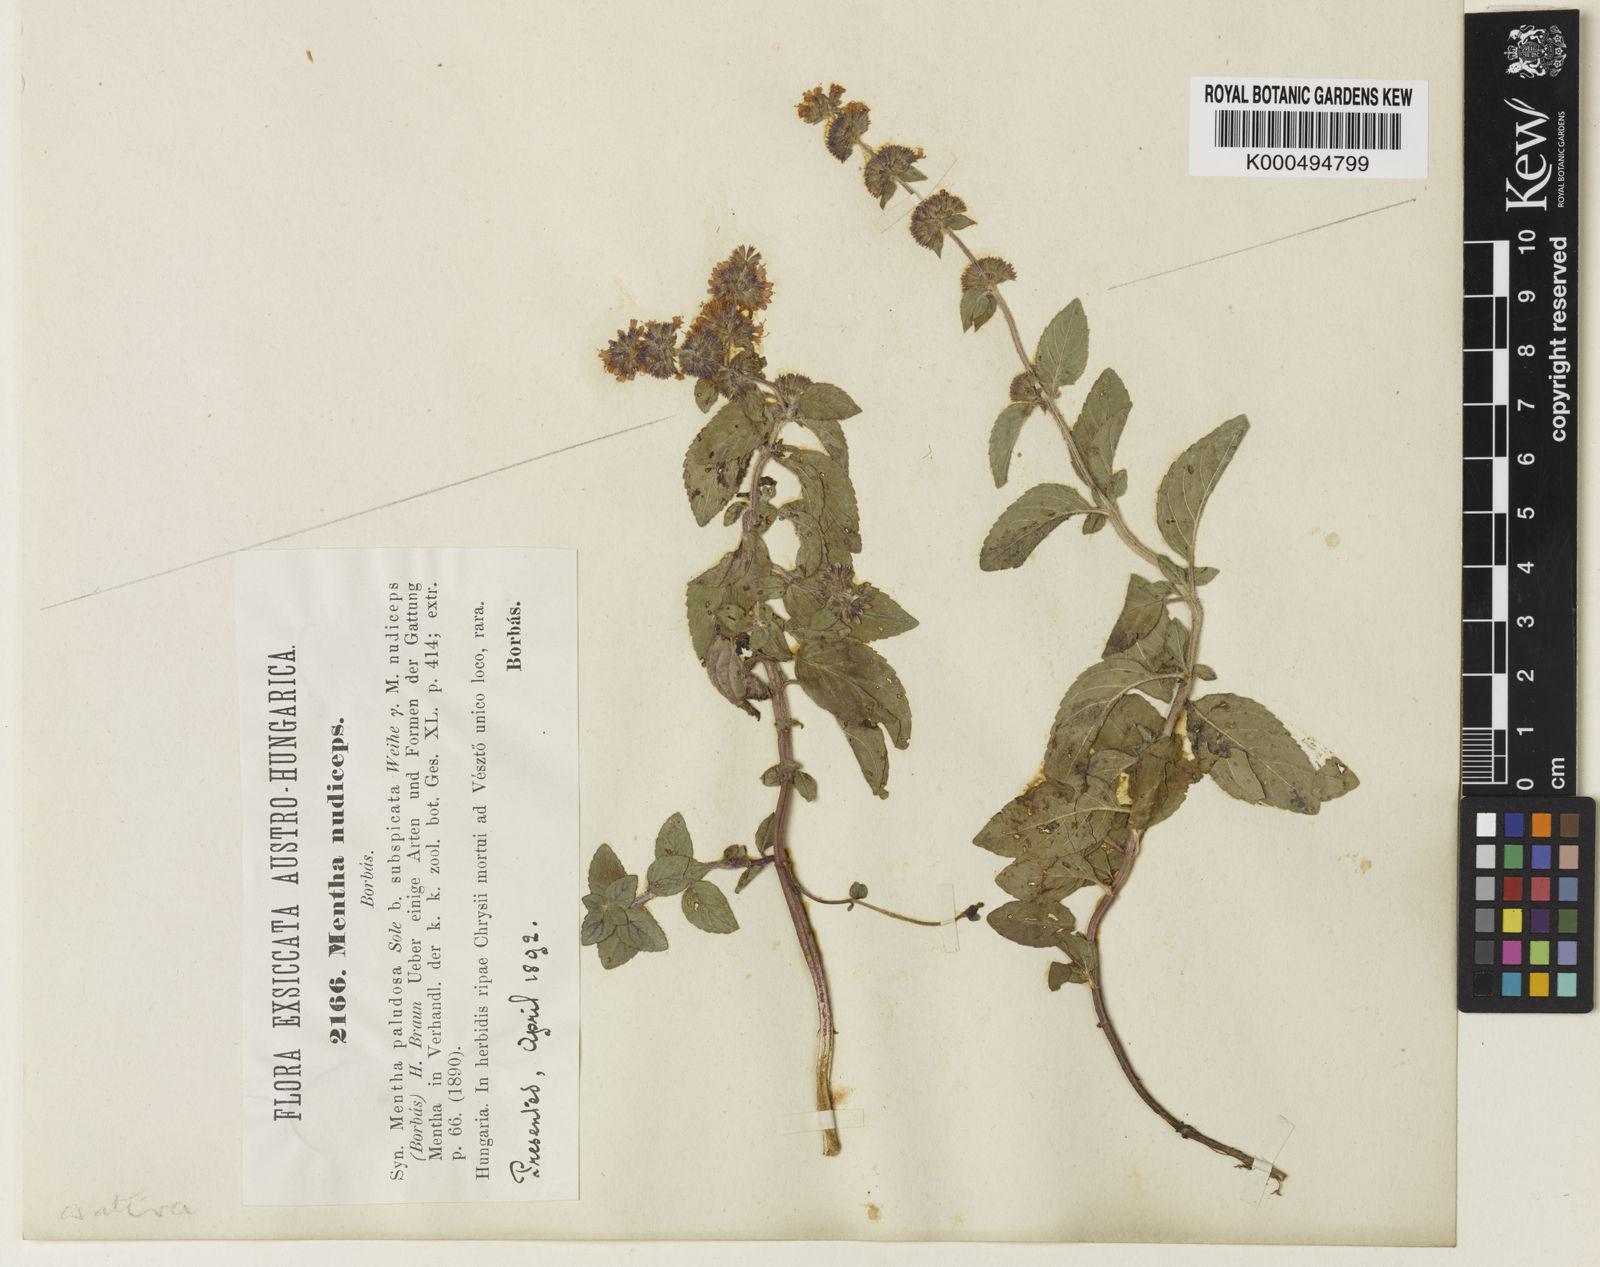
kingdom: Plantae
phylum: Tracheophyta
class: Magnoliopsida
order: Lamiales
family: Lamiaceae
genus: Mentha
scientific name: Mentha verticillata
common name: Mint
